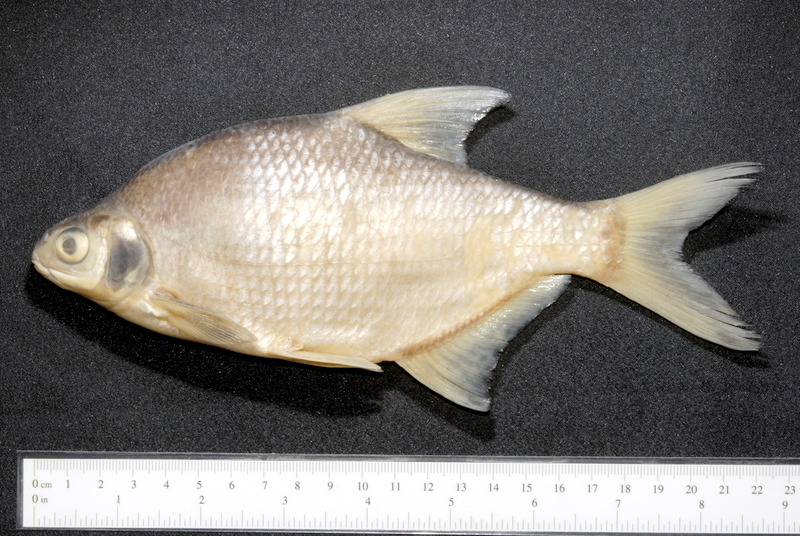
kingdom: Animalia
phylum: Chordata
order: Cypriniformes
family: Cyprinidae
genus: Blicca
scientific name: Blicca bjoerkna
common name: White bream
